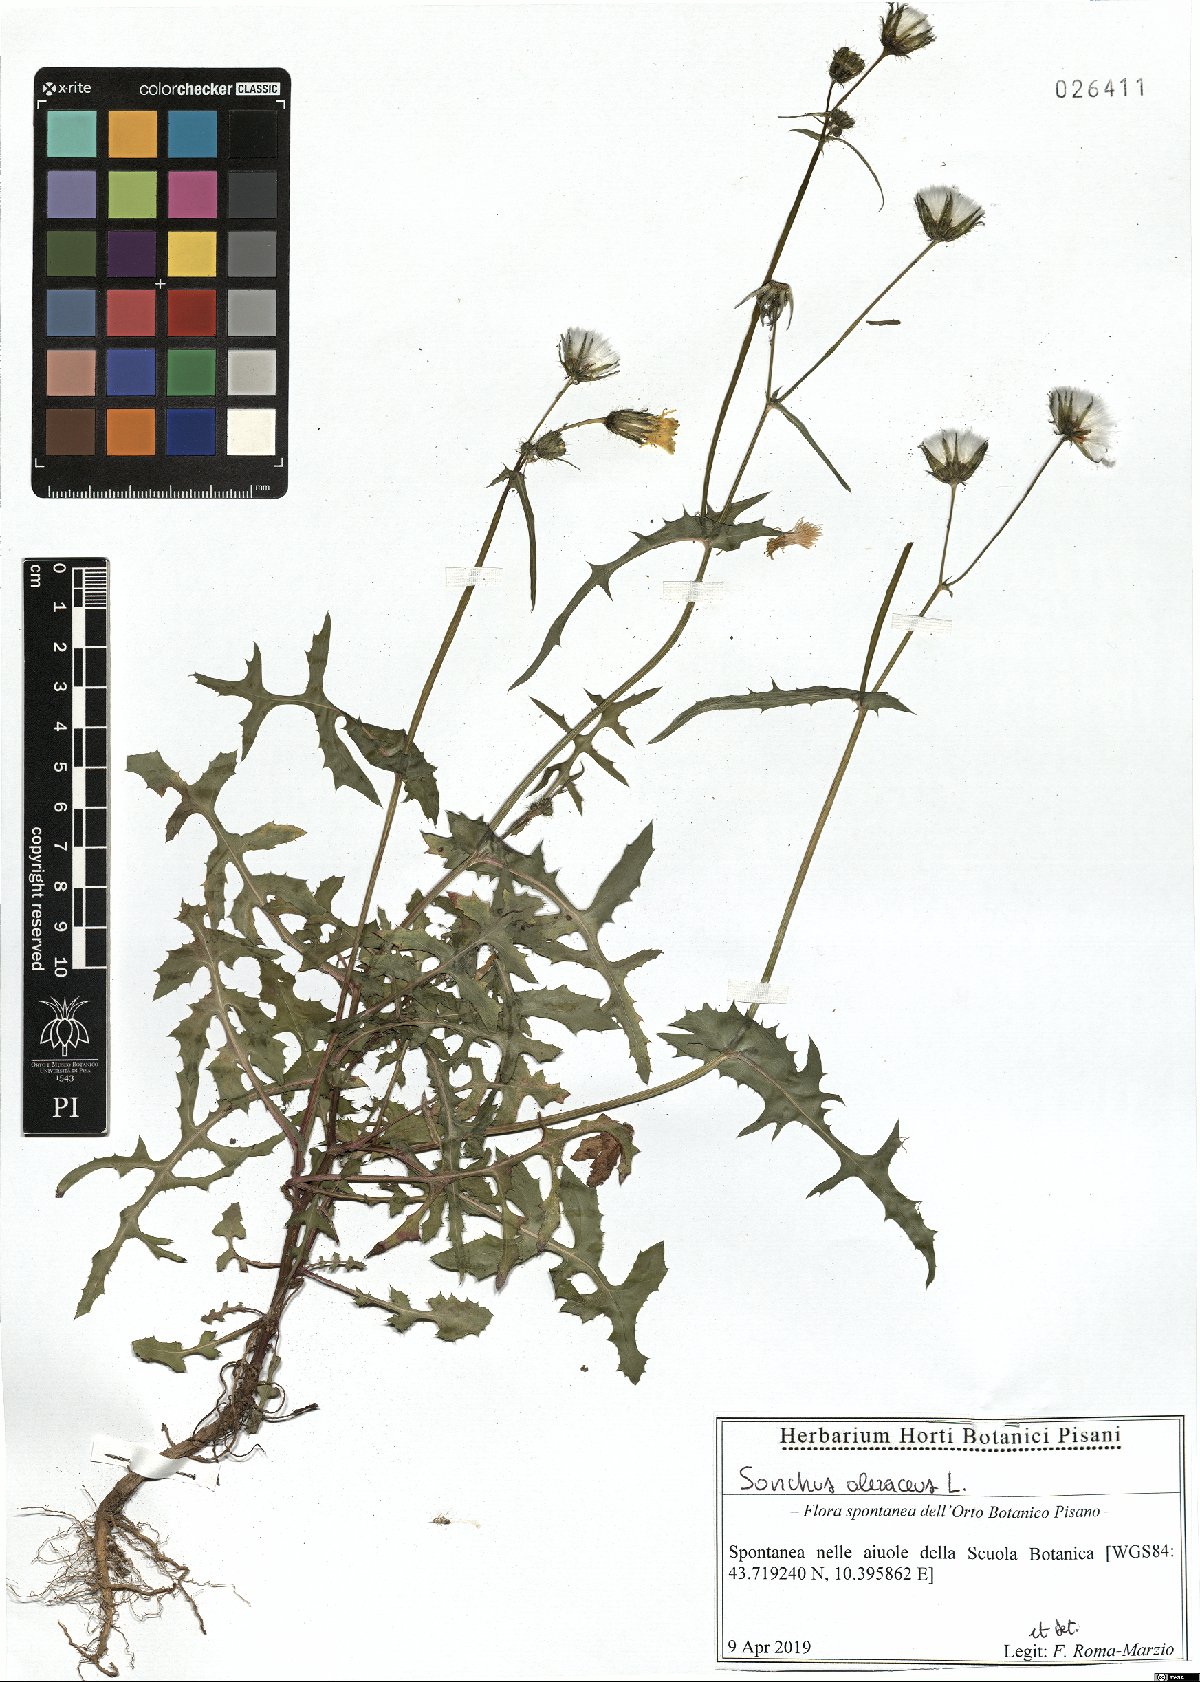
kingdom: Plantae
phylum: Tracheophyta
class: Magnoliopsida
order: Asterales
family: Asteraceae
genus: Sonchus
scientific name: Sonchus oleraceus
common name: Common sowthistle
